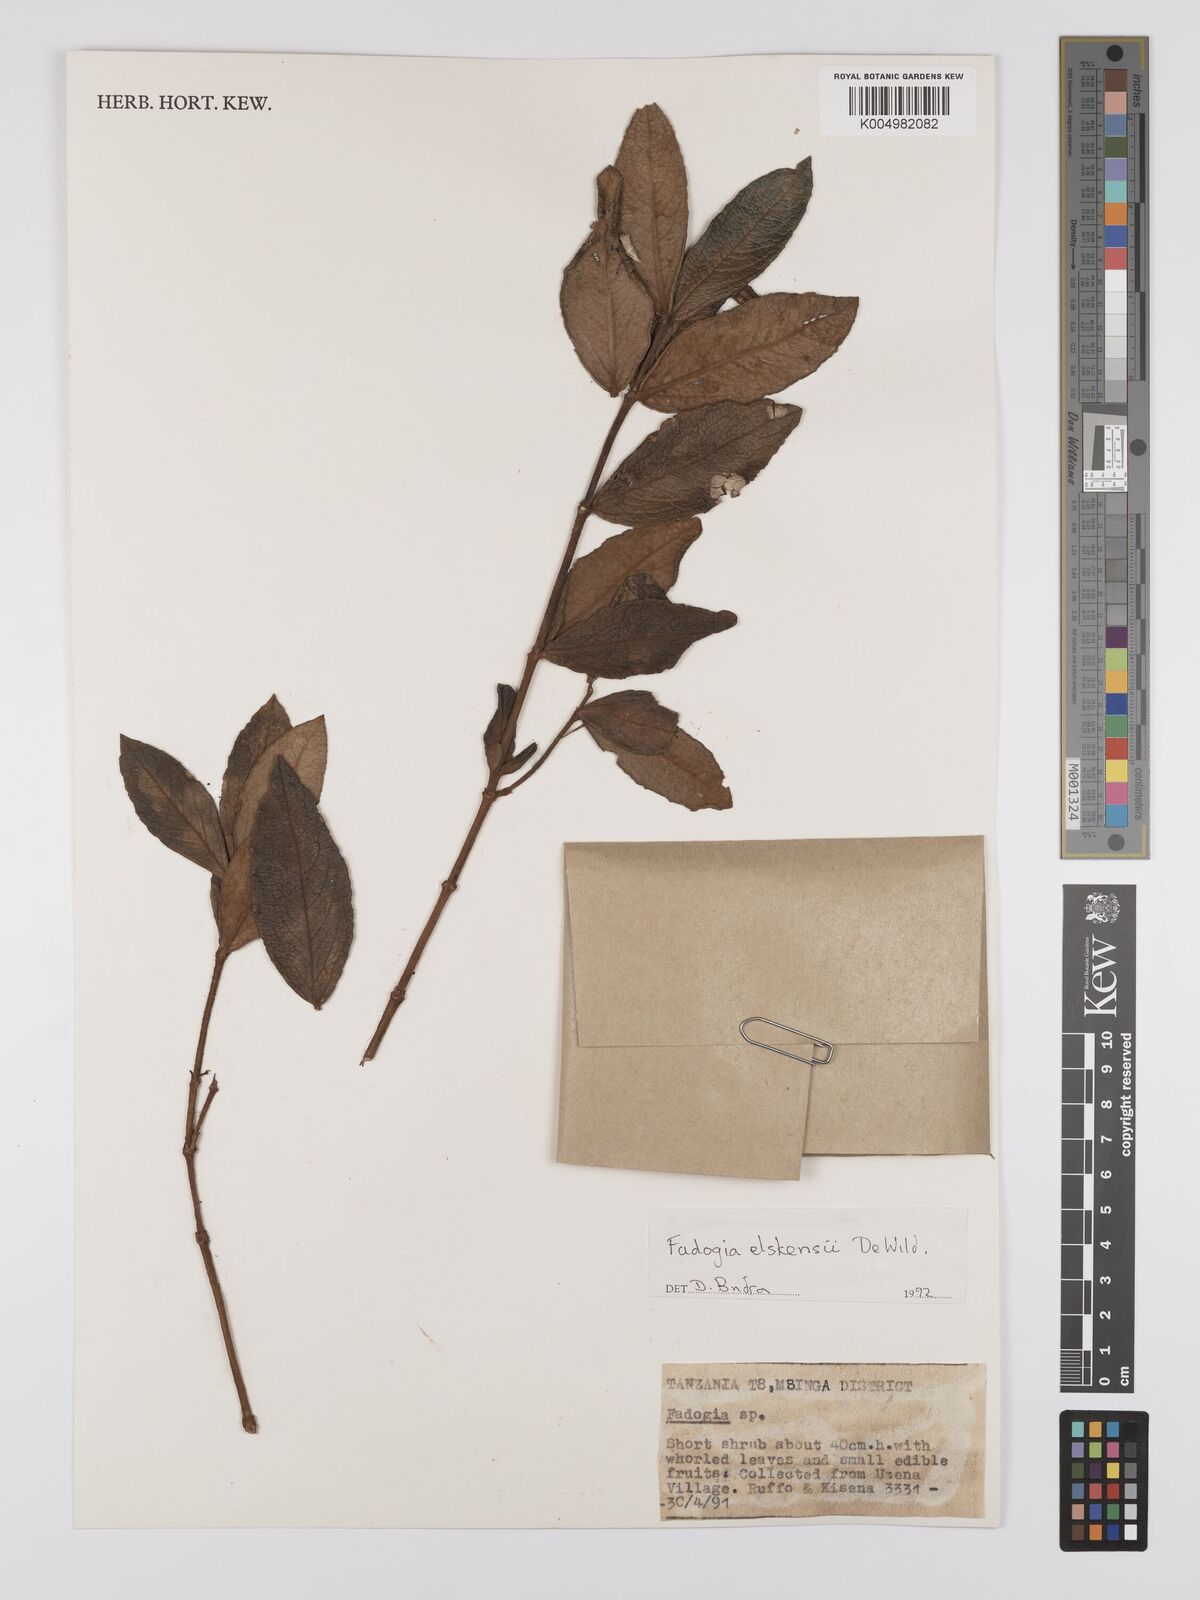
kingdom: Plantae
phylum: Tracheophyta
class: Magnoliopsida
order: Gentianales
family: Rubiaceae
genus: Fadogia
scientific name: Fadogia elskensii
